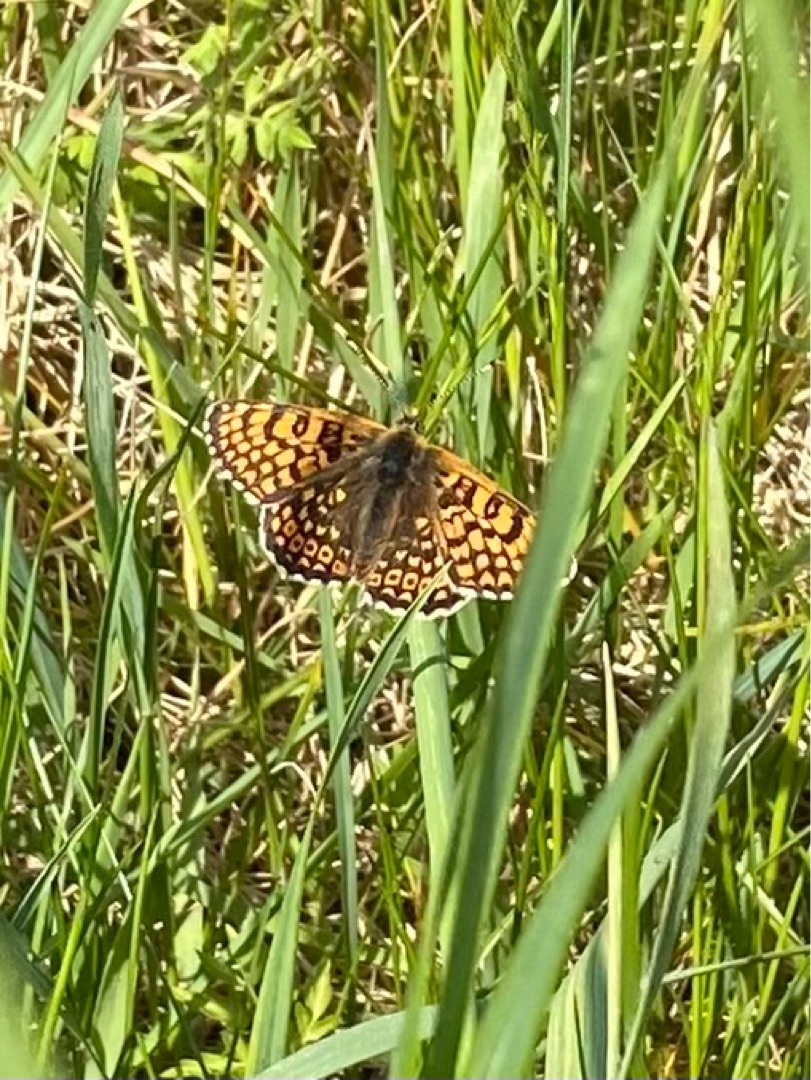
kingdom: Animalia
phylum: Arthropoda
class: Insecta
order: Lepidoptera
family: Nymphalidae
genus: Melitaea
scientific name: Melitaea cinxia
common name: Okkergul pletvinge
